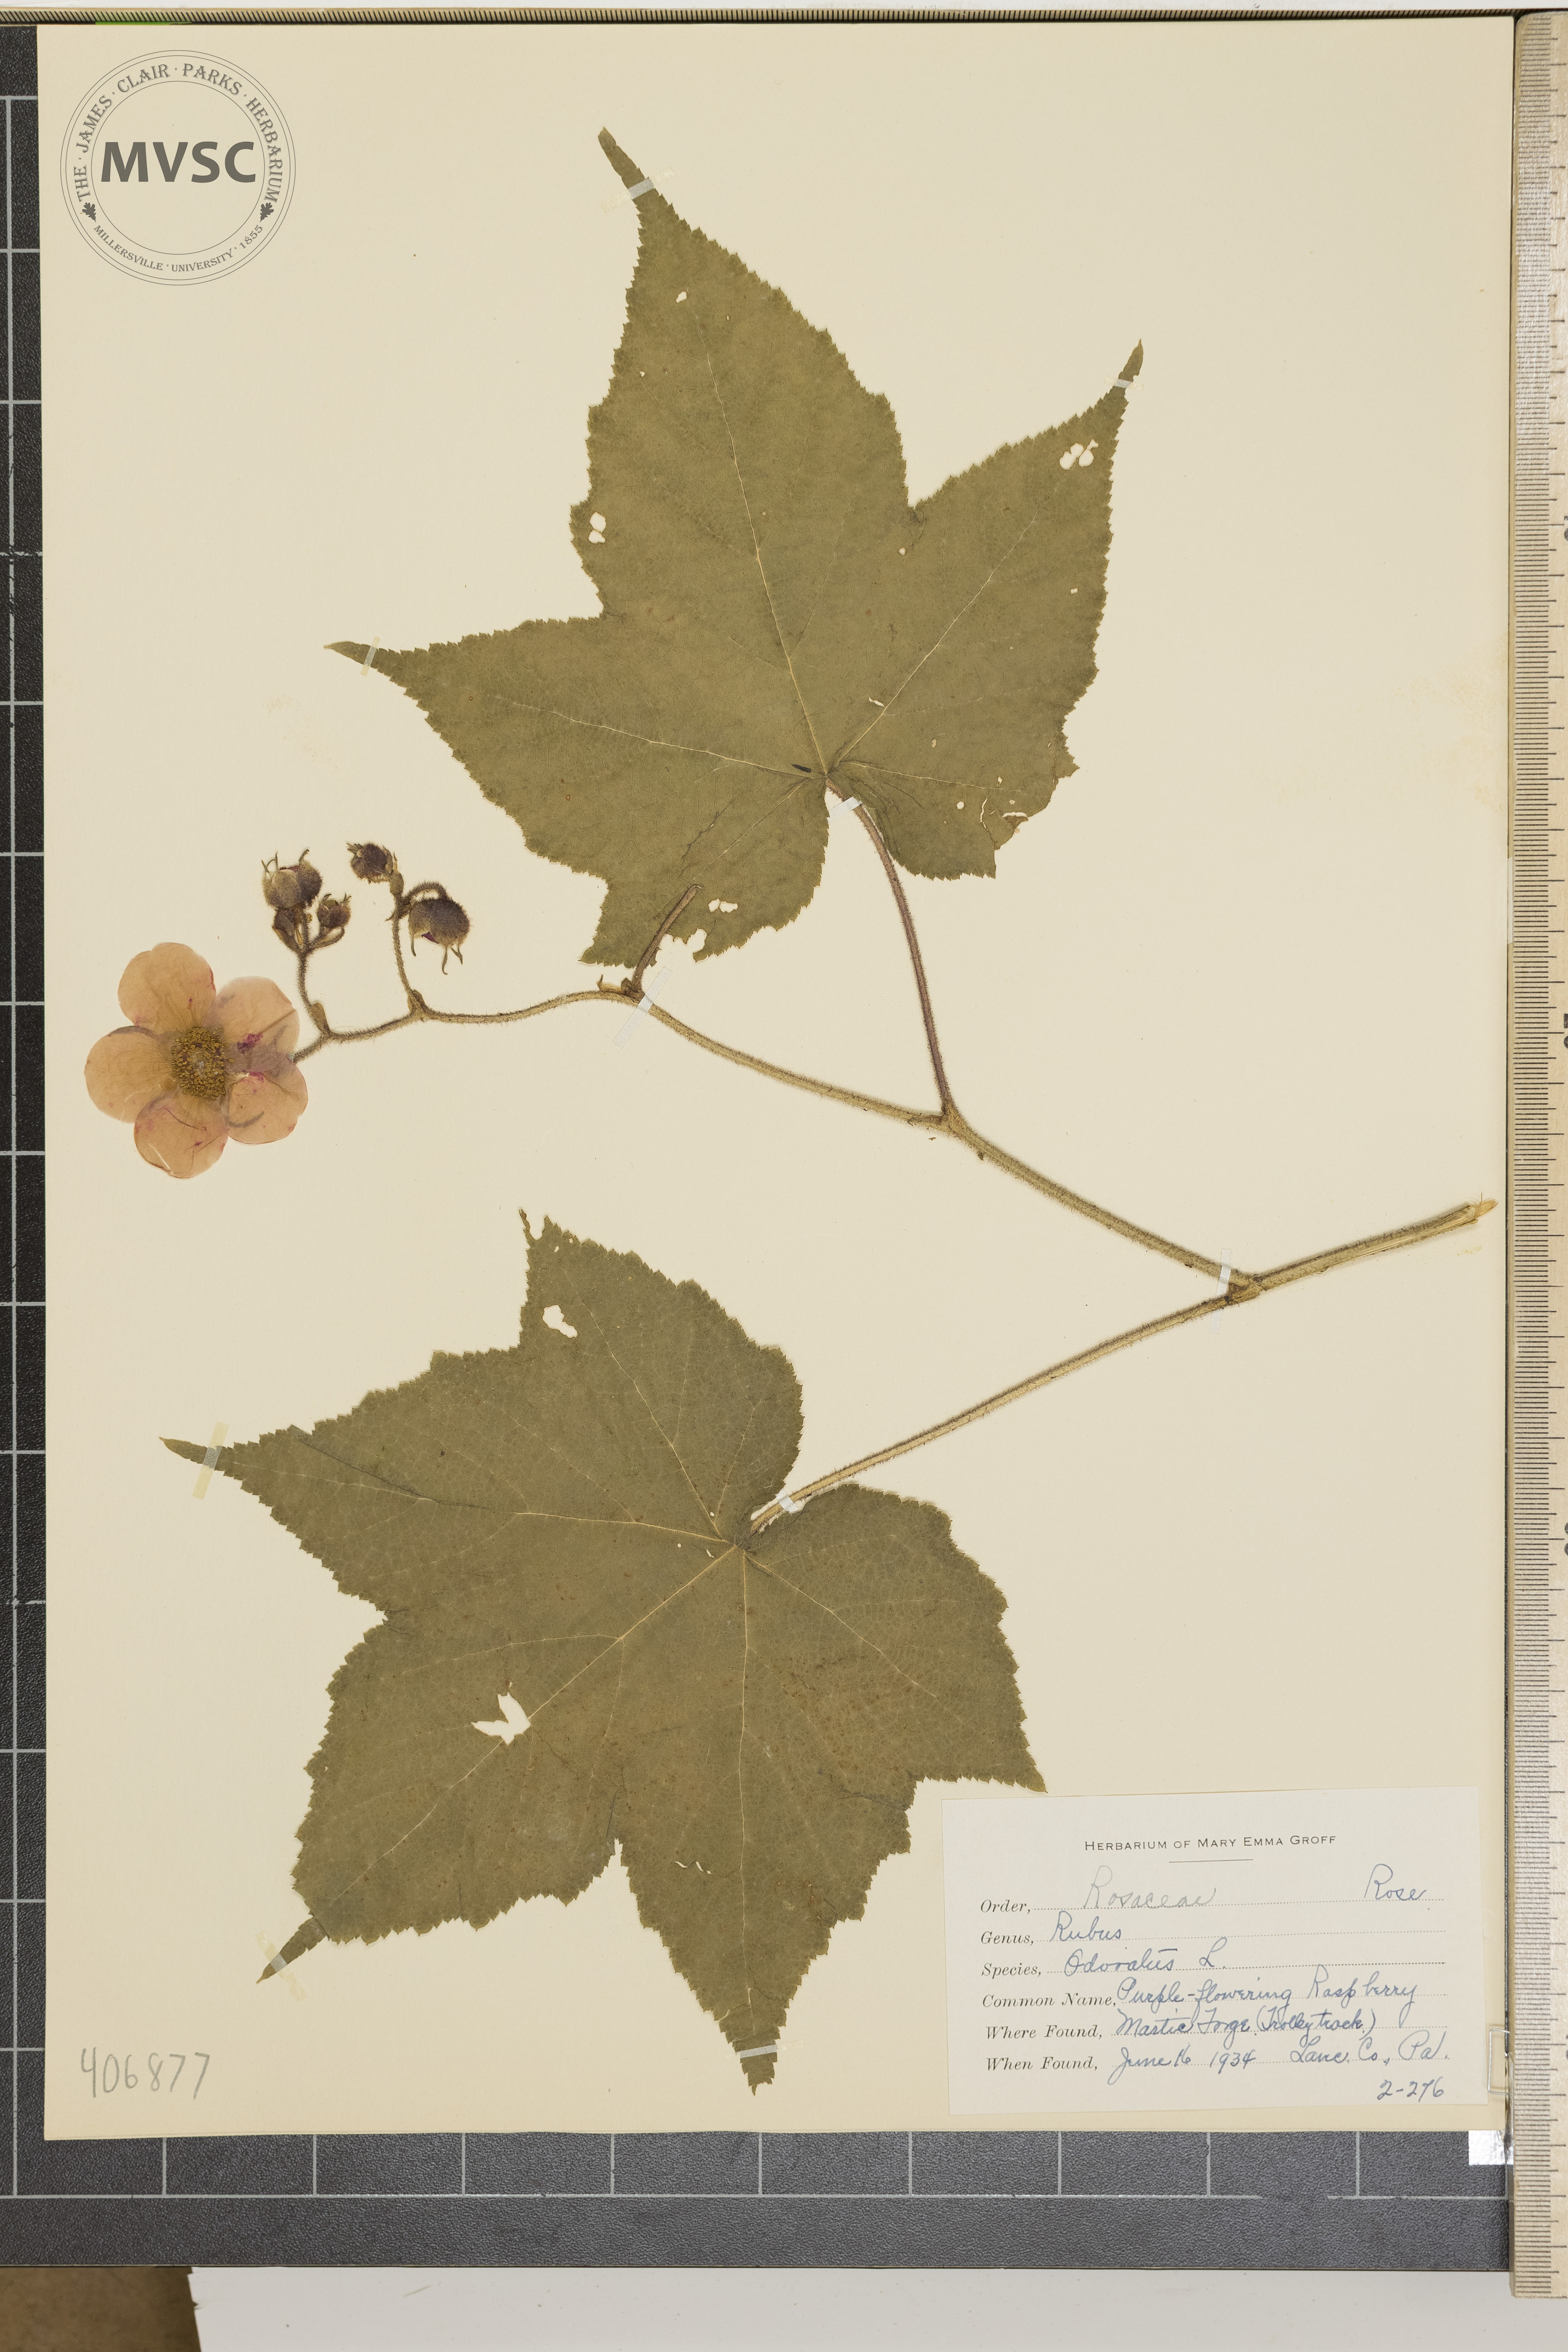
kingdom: Plantae
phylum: Tracheophyta
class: Magnoliopsida
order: Rosales
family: Rosaceae
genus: Rubus
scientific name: Rubus odoratus
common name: purple-flowering raspberry
